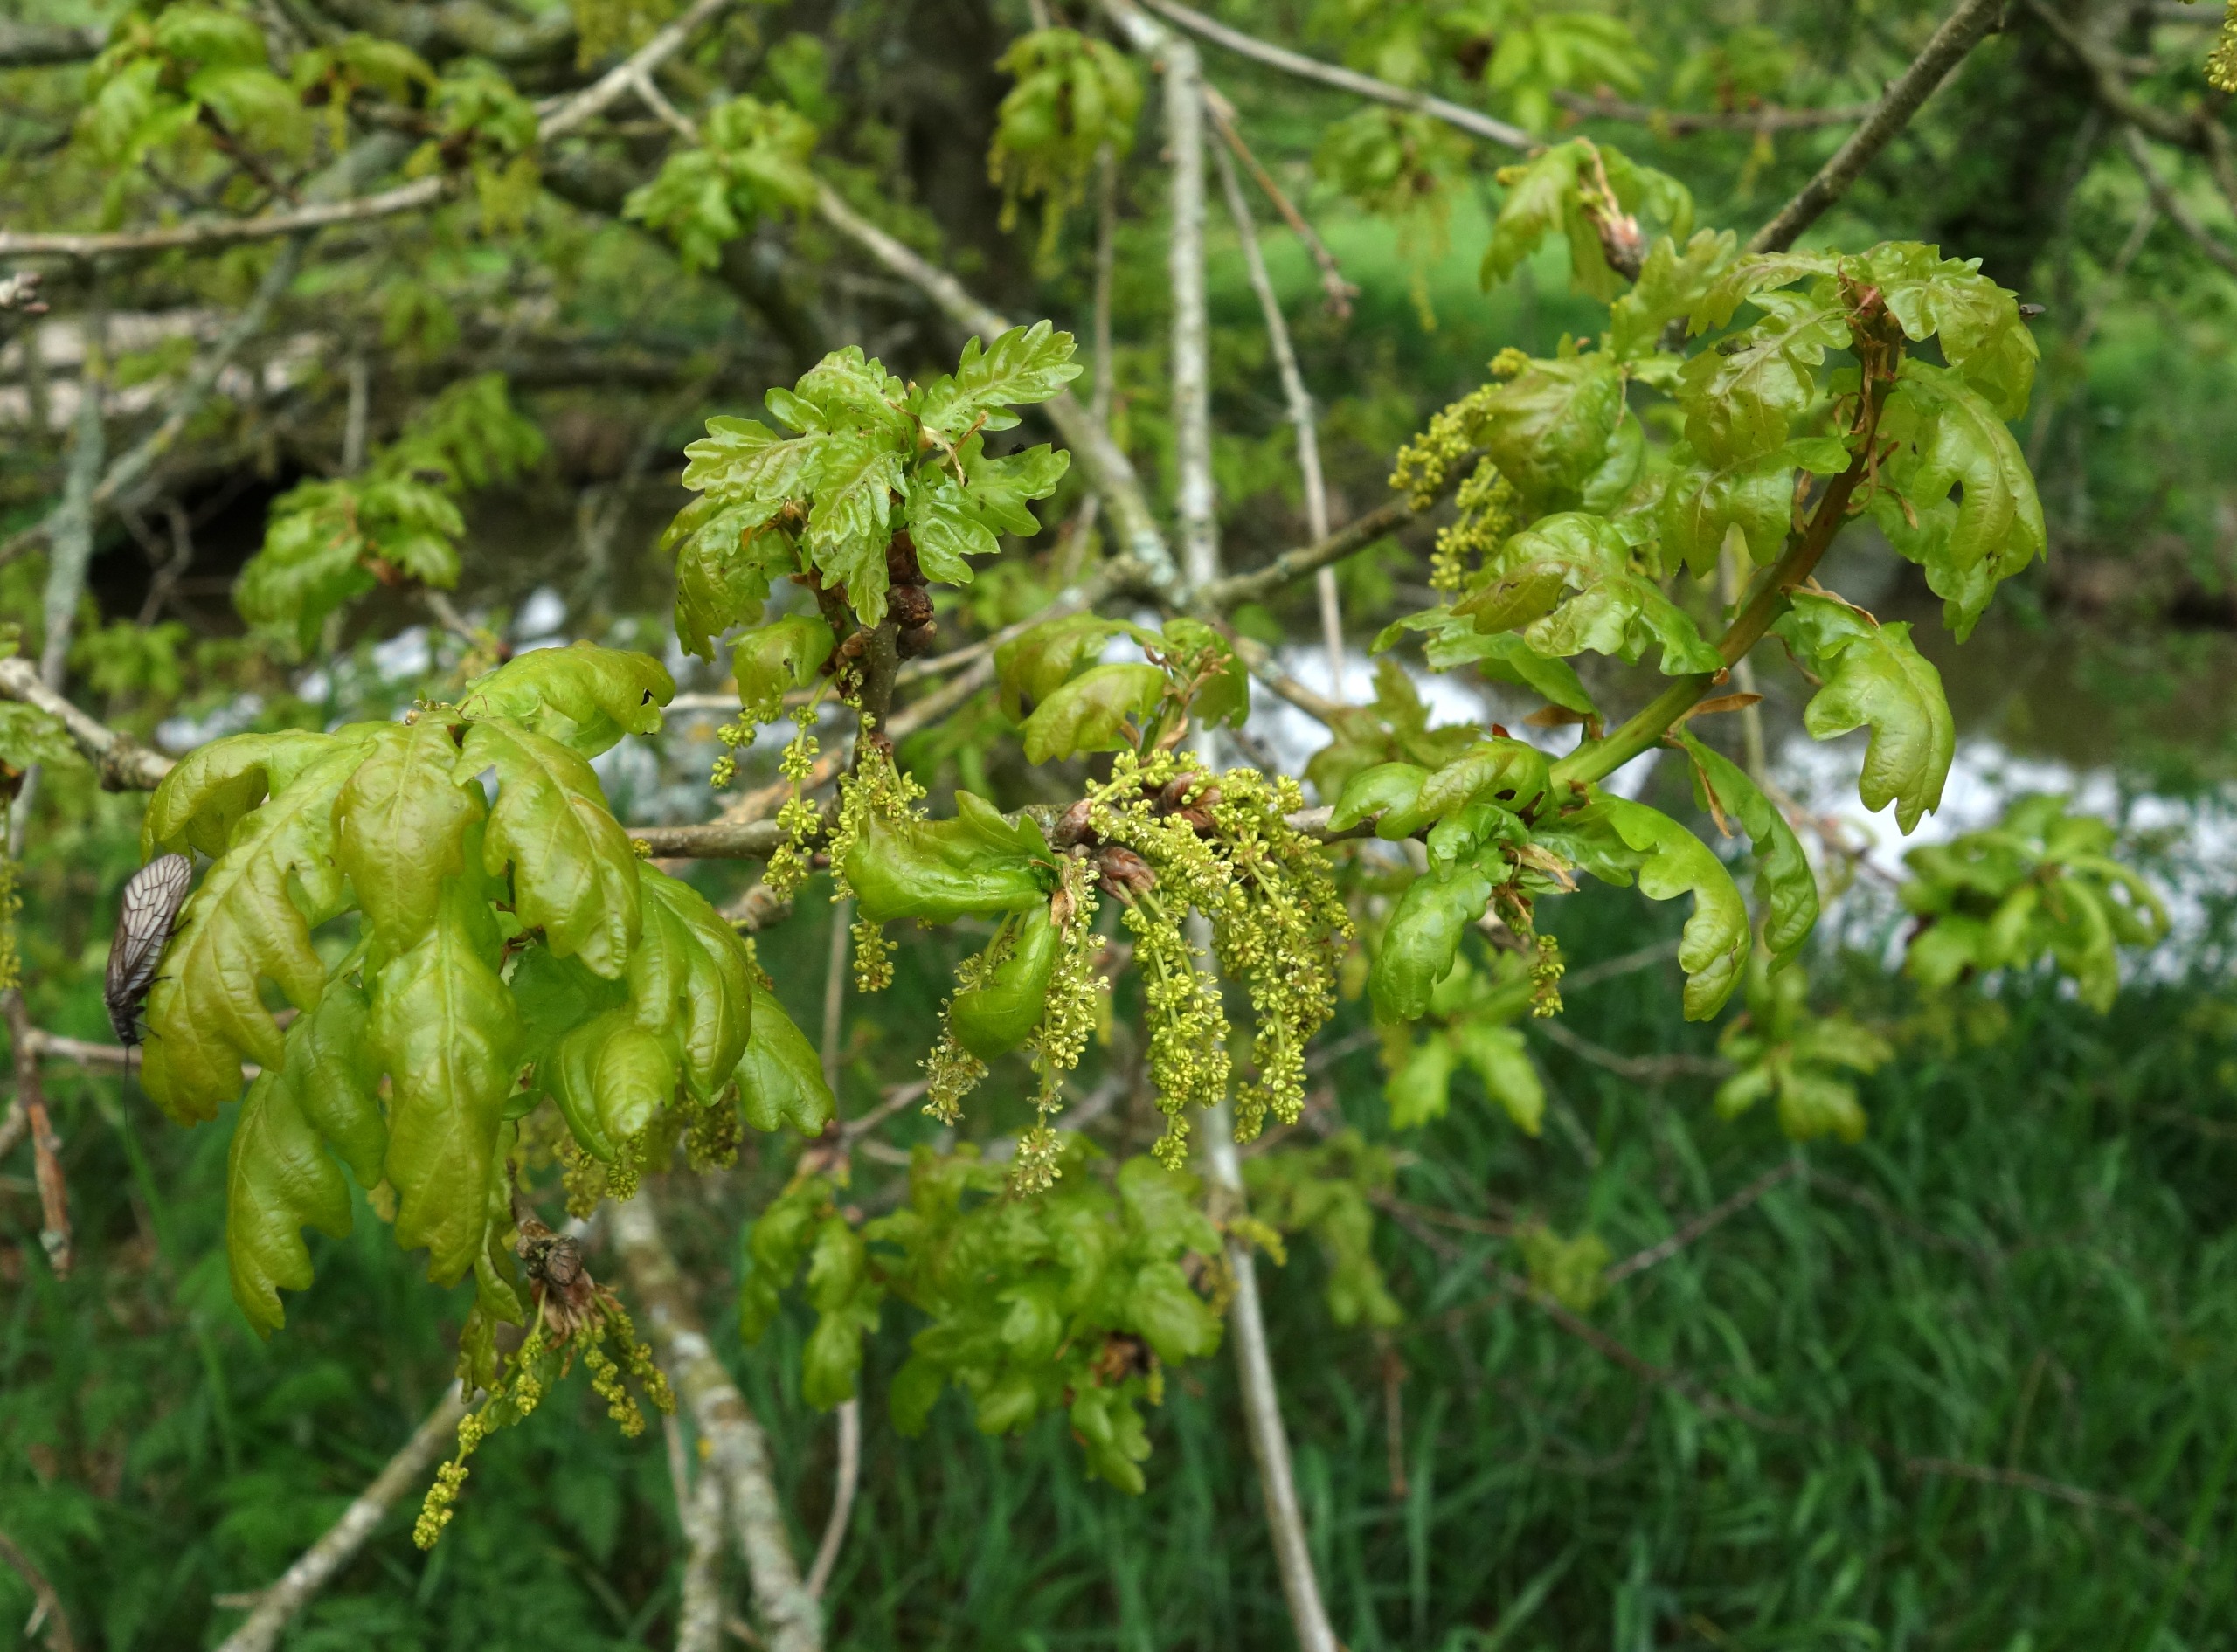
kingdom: Plantae
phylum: Tracheophyta
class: Magnoliopsida
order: Fagales
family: Fagaceae
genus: Quercus
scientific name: Quercus robur
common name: Stilk-eg/almindelig eg
